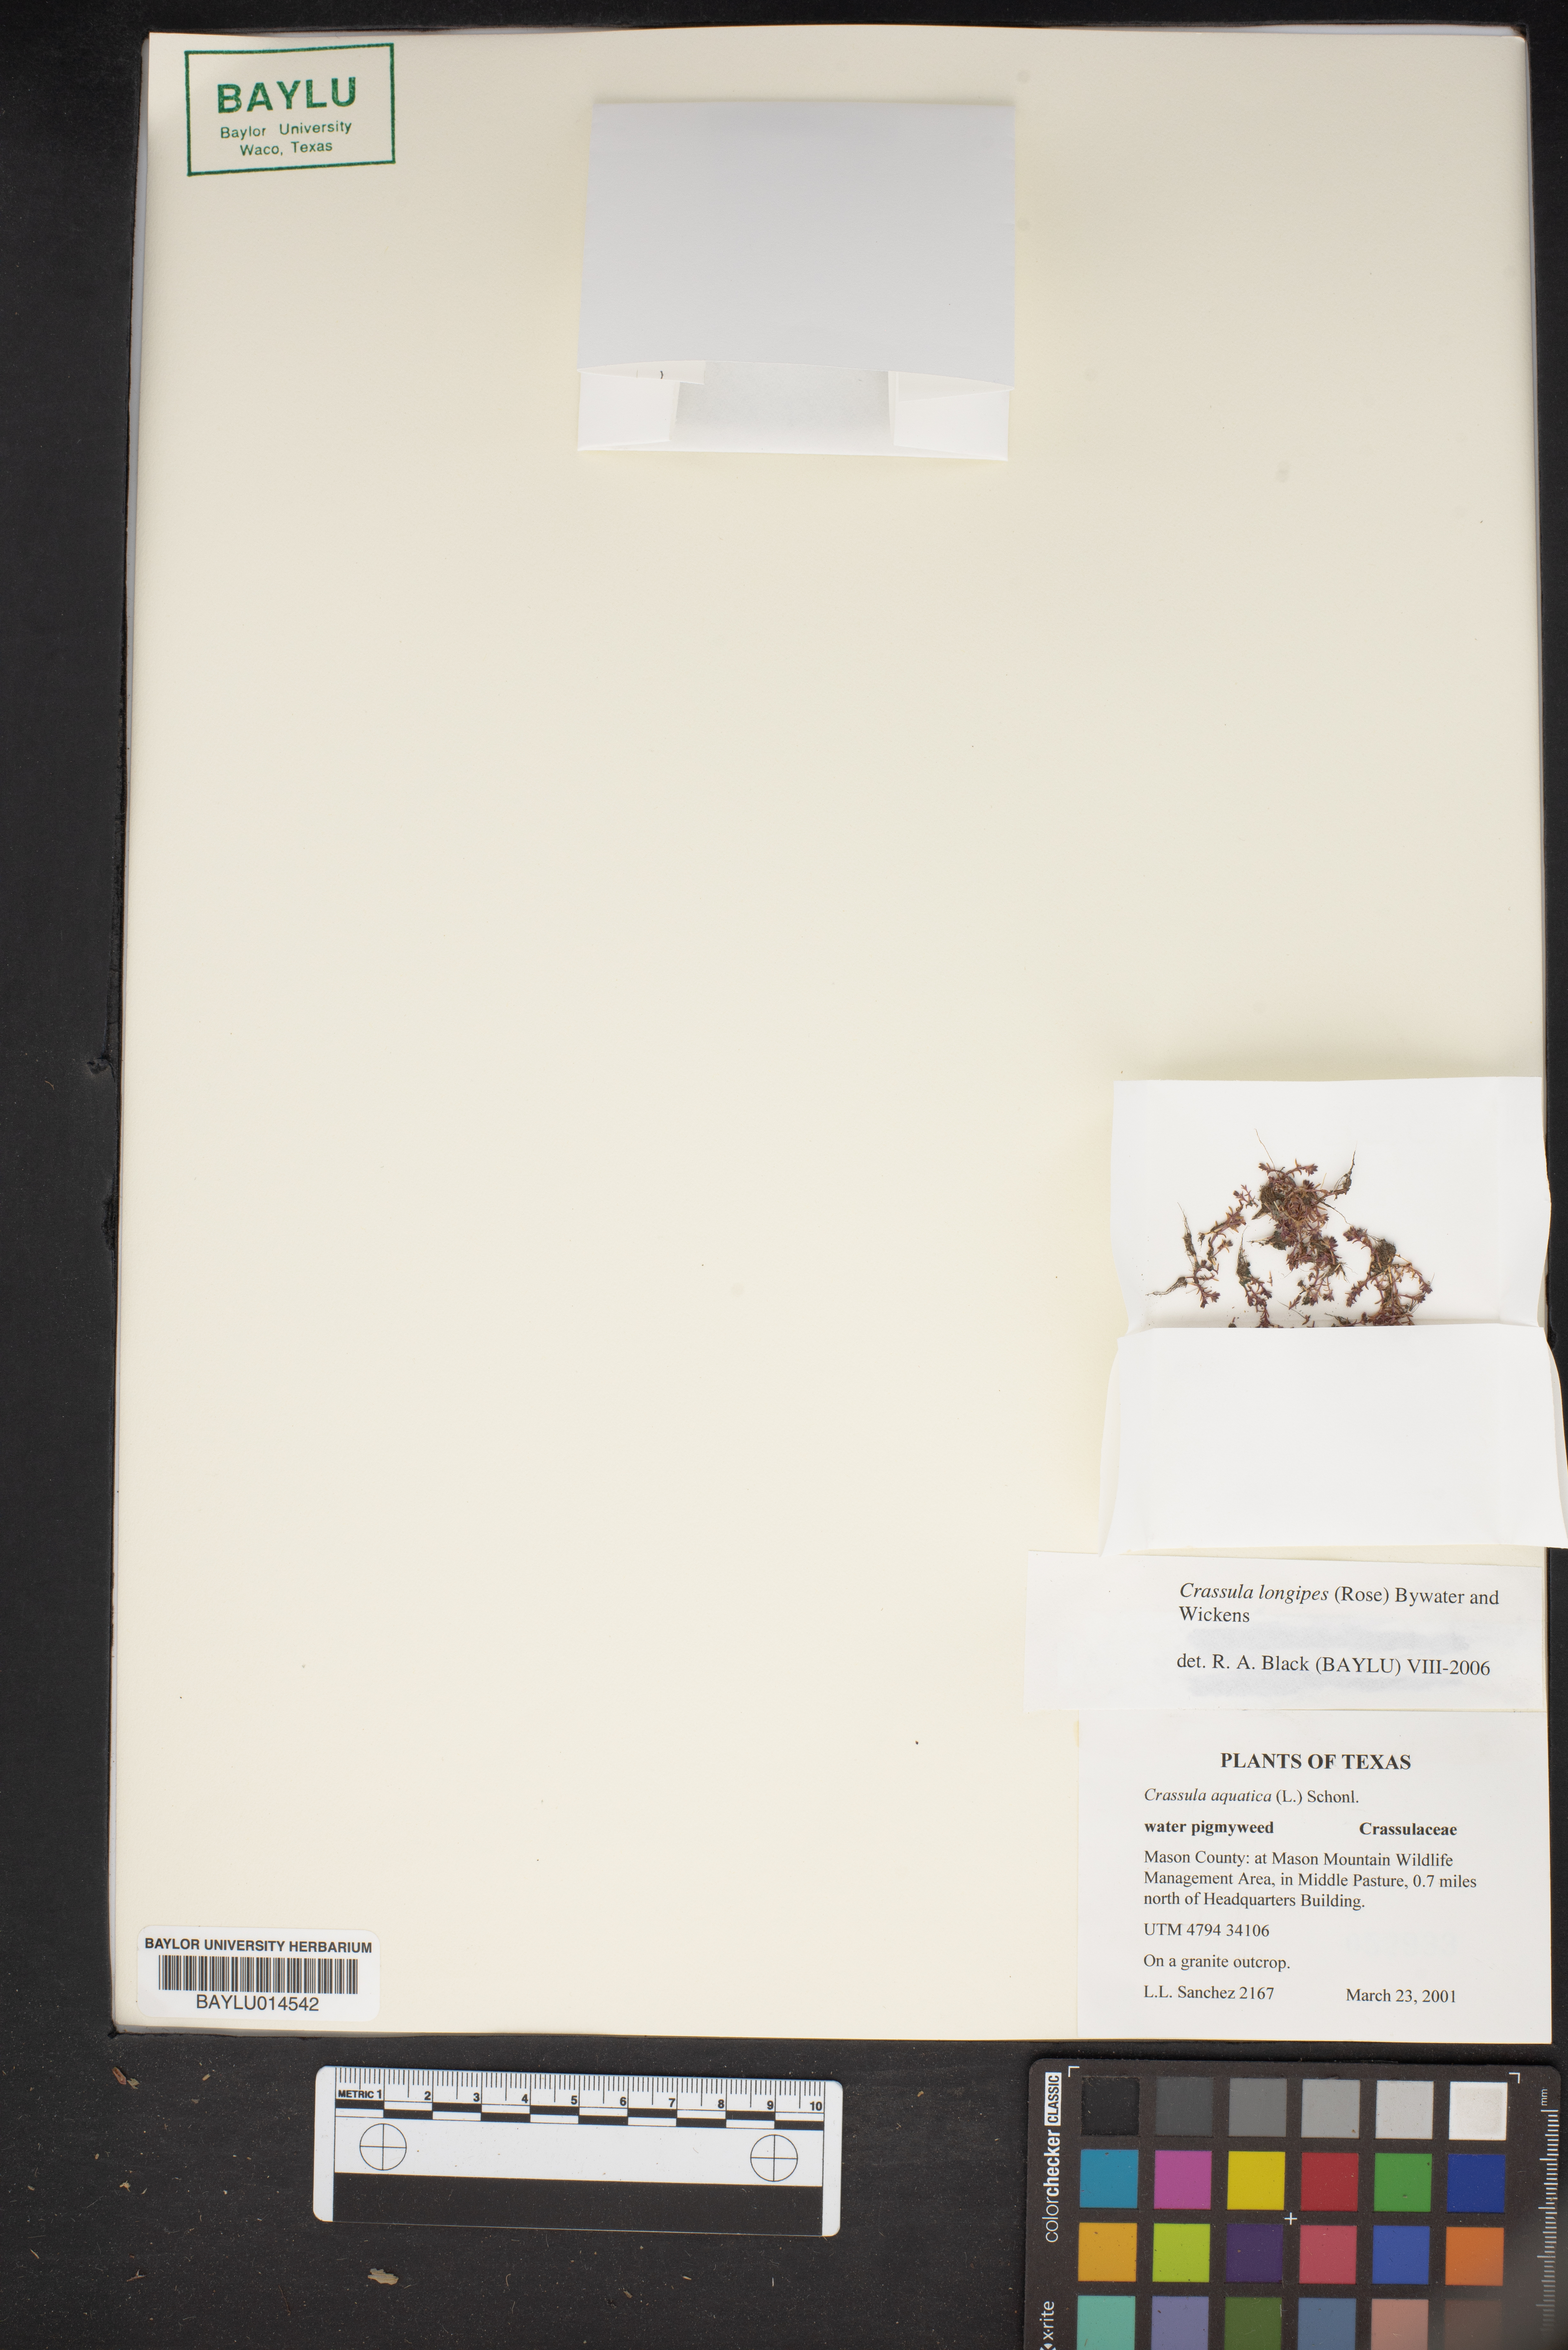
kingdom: Plantae
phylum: Tracheophyta
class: Magnoliopsida
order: Saxifragales
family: Crassulaceae
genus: Crassula
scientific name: Crassula aquatica
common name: Pigmyweed
